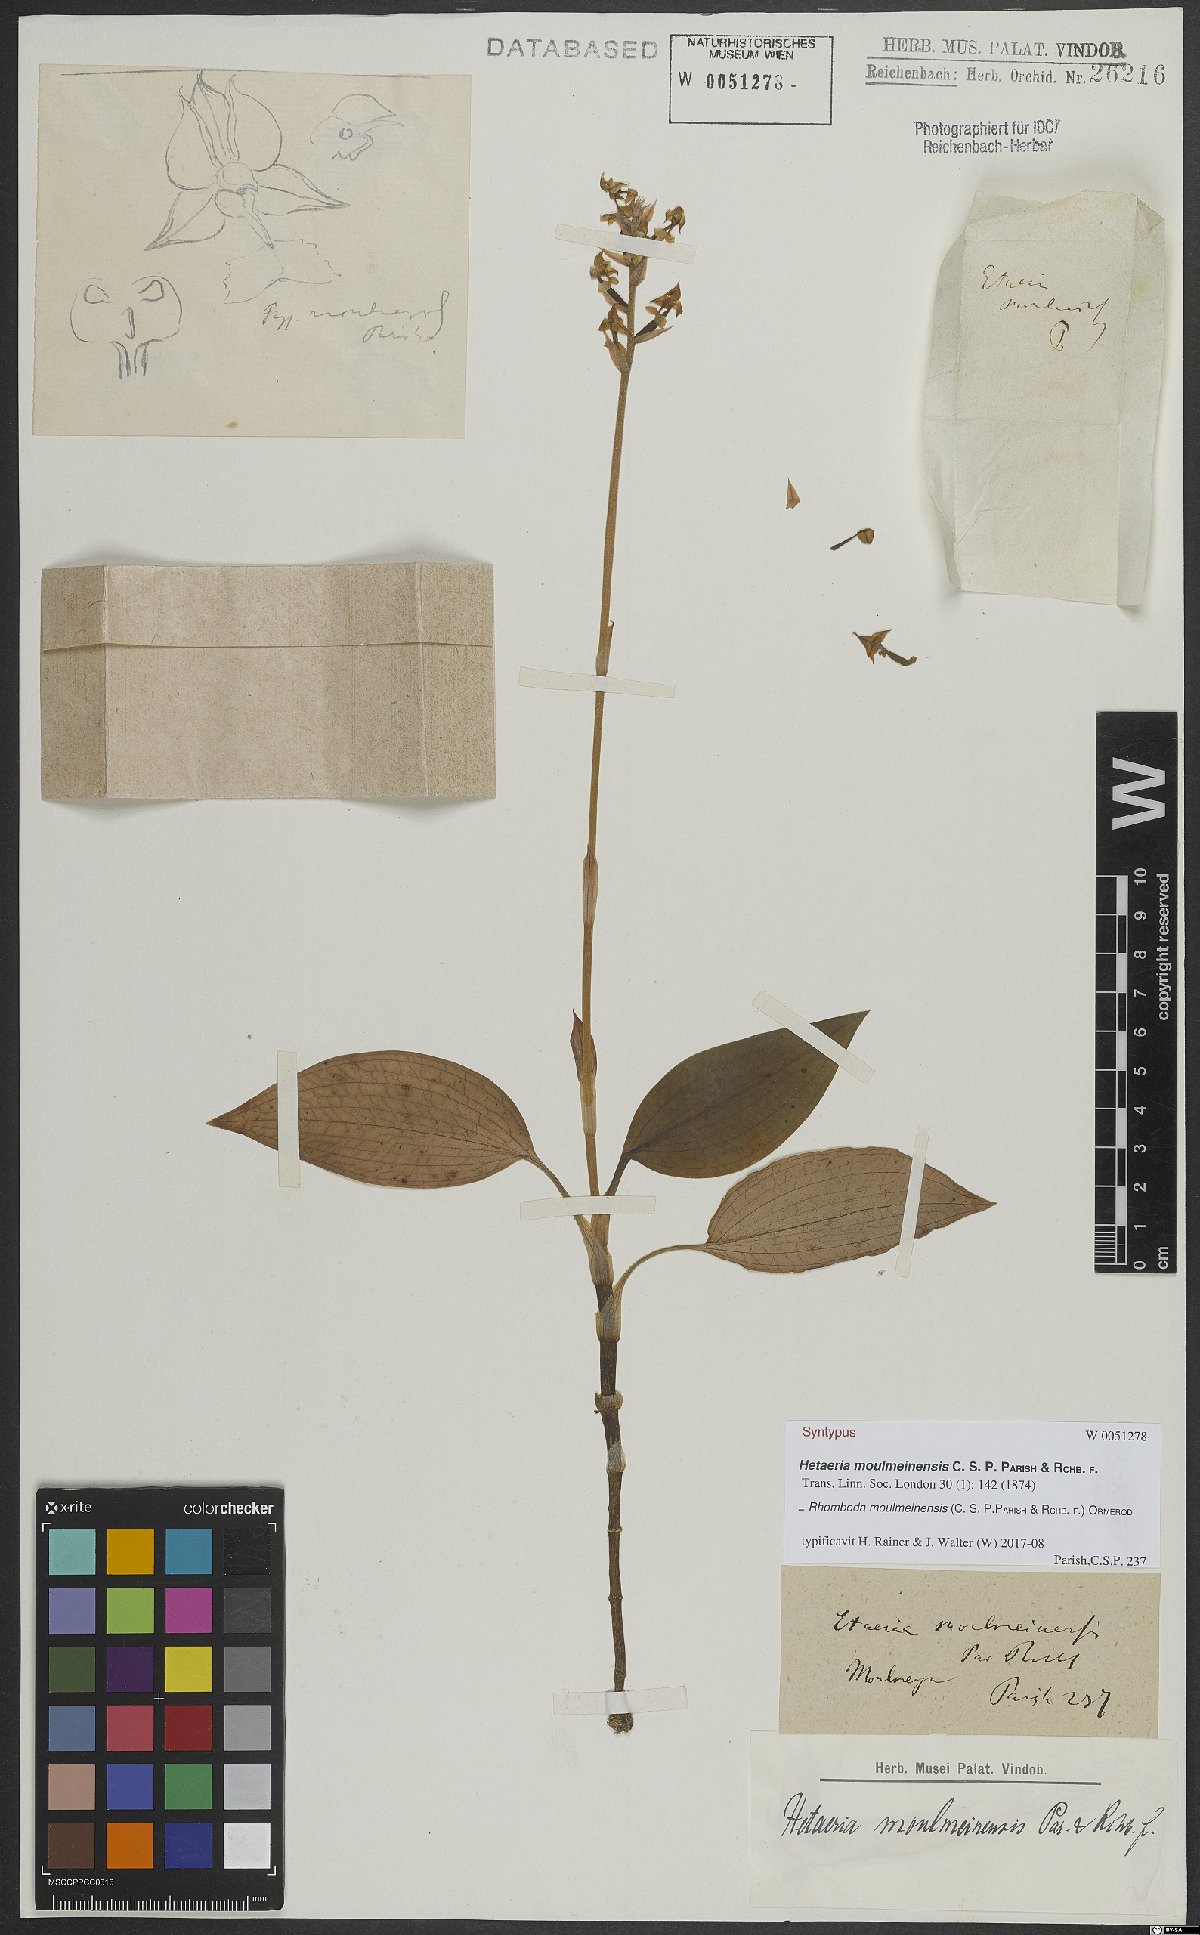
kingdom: Plantae
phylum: Tracheophyta
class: Liliopsida
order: Asparagales
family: Orchidaceae
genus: Rhomboda
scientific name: Rhomboda moulmeinensis
